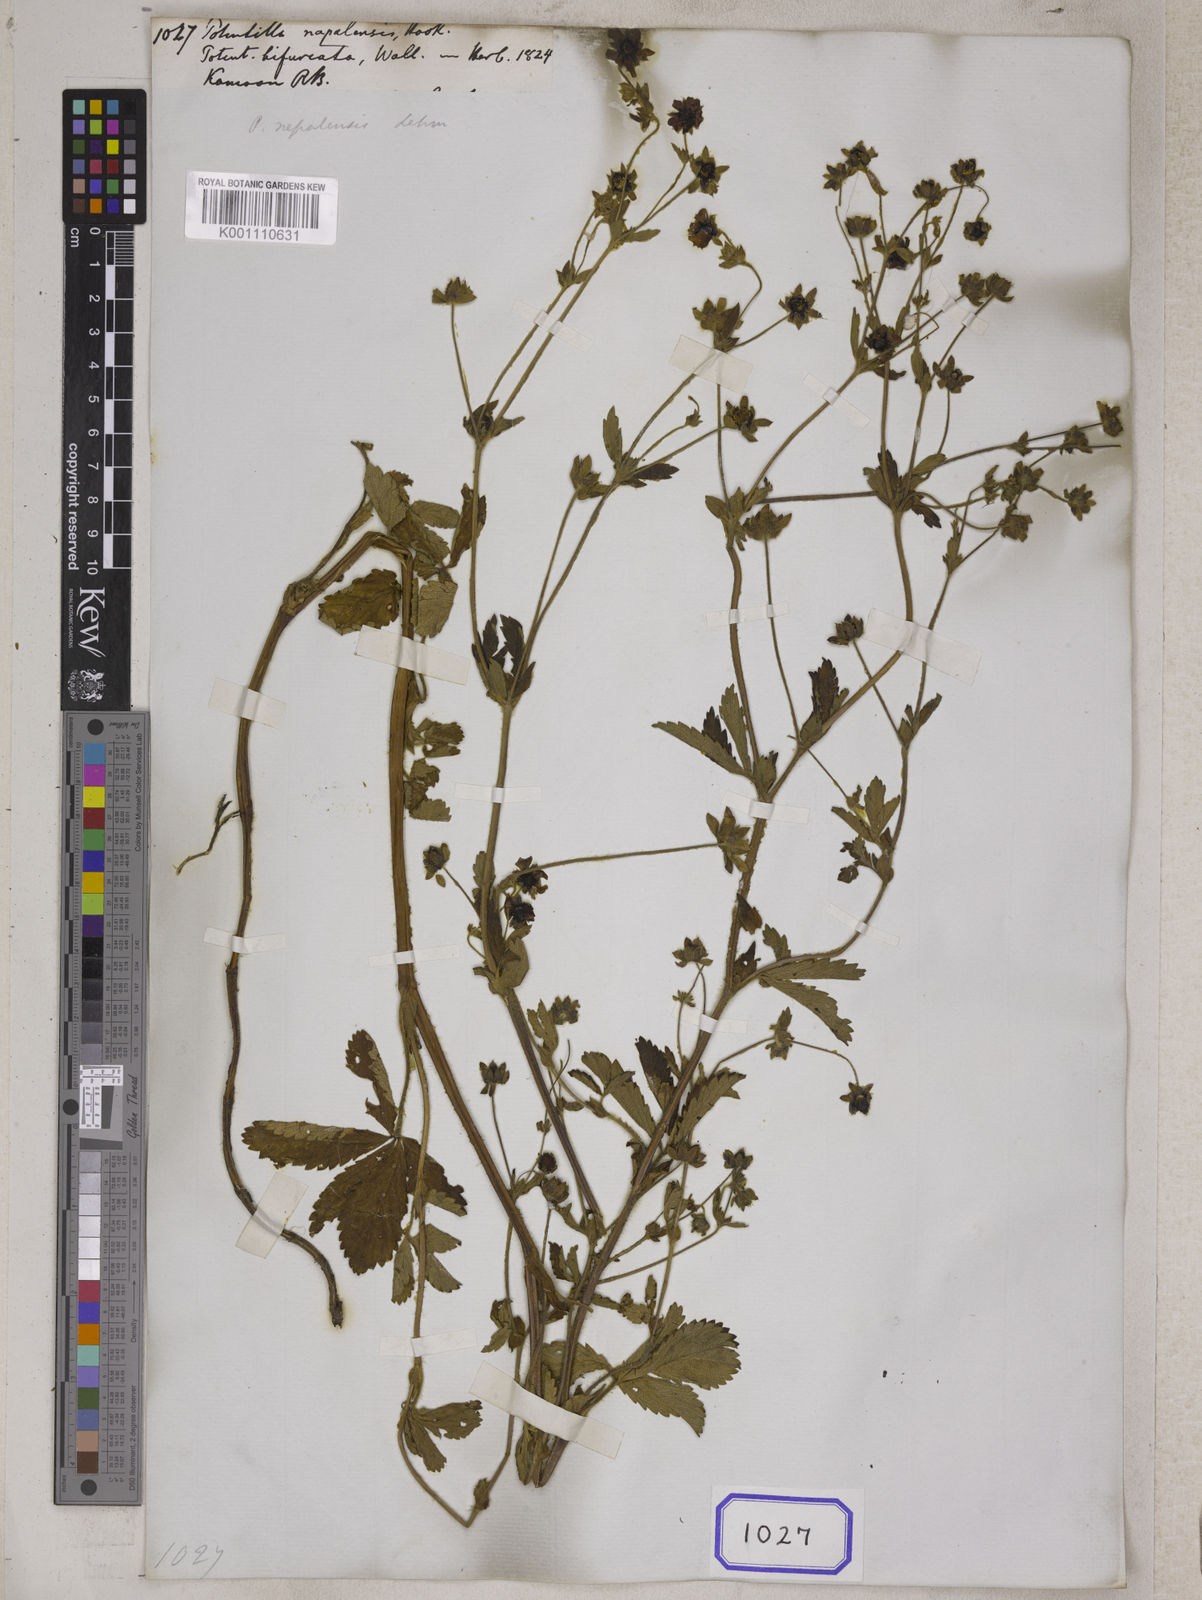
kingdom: Plantae
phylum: Tracheophyta
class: Magnoliopsida
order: Rosales
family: Rosaceae
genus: Potentilla
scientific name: Potentilla nepalensis
